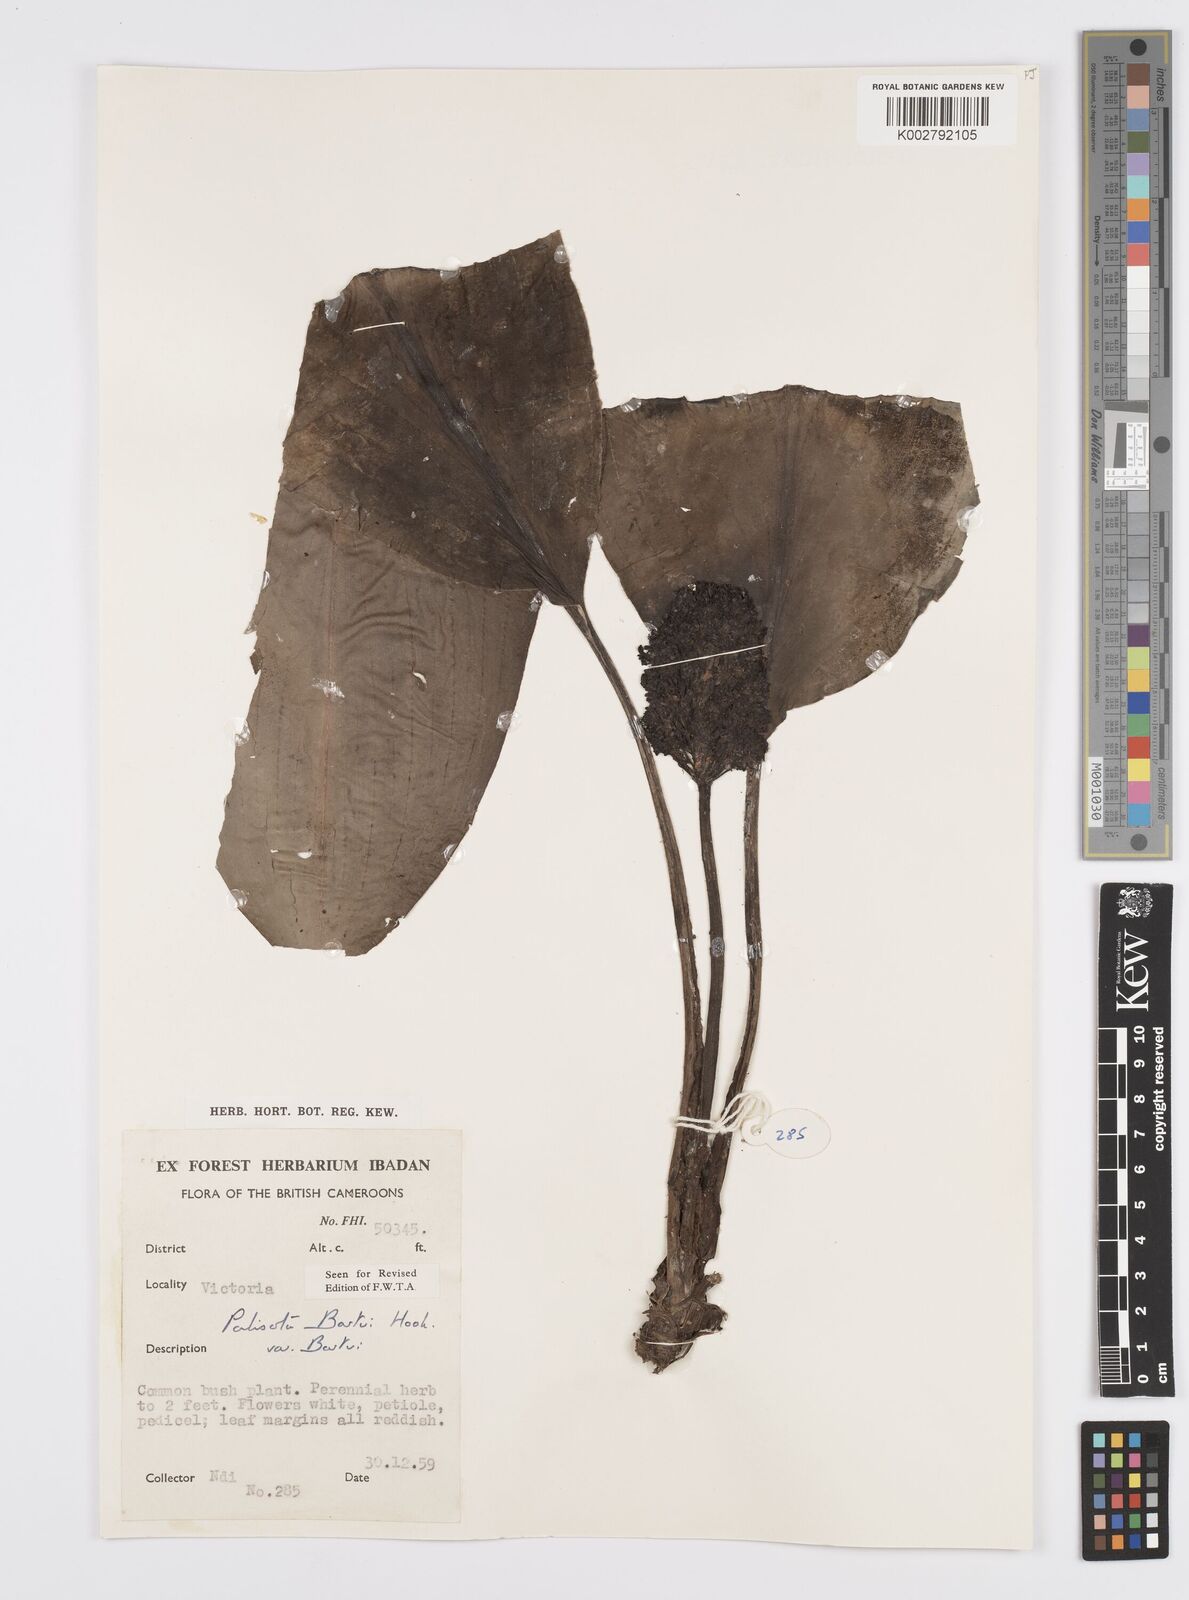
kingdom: Plantae
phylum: Tracheophyta
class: Liliopsida
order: Commelinales
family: Commelinaceae
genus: Palisota
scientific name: Palisota barteri
